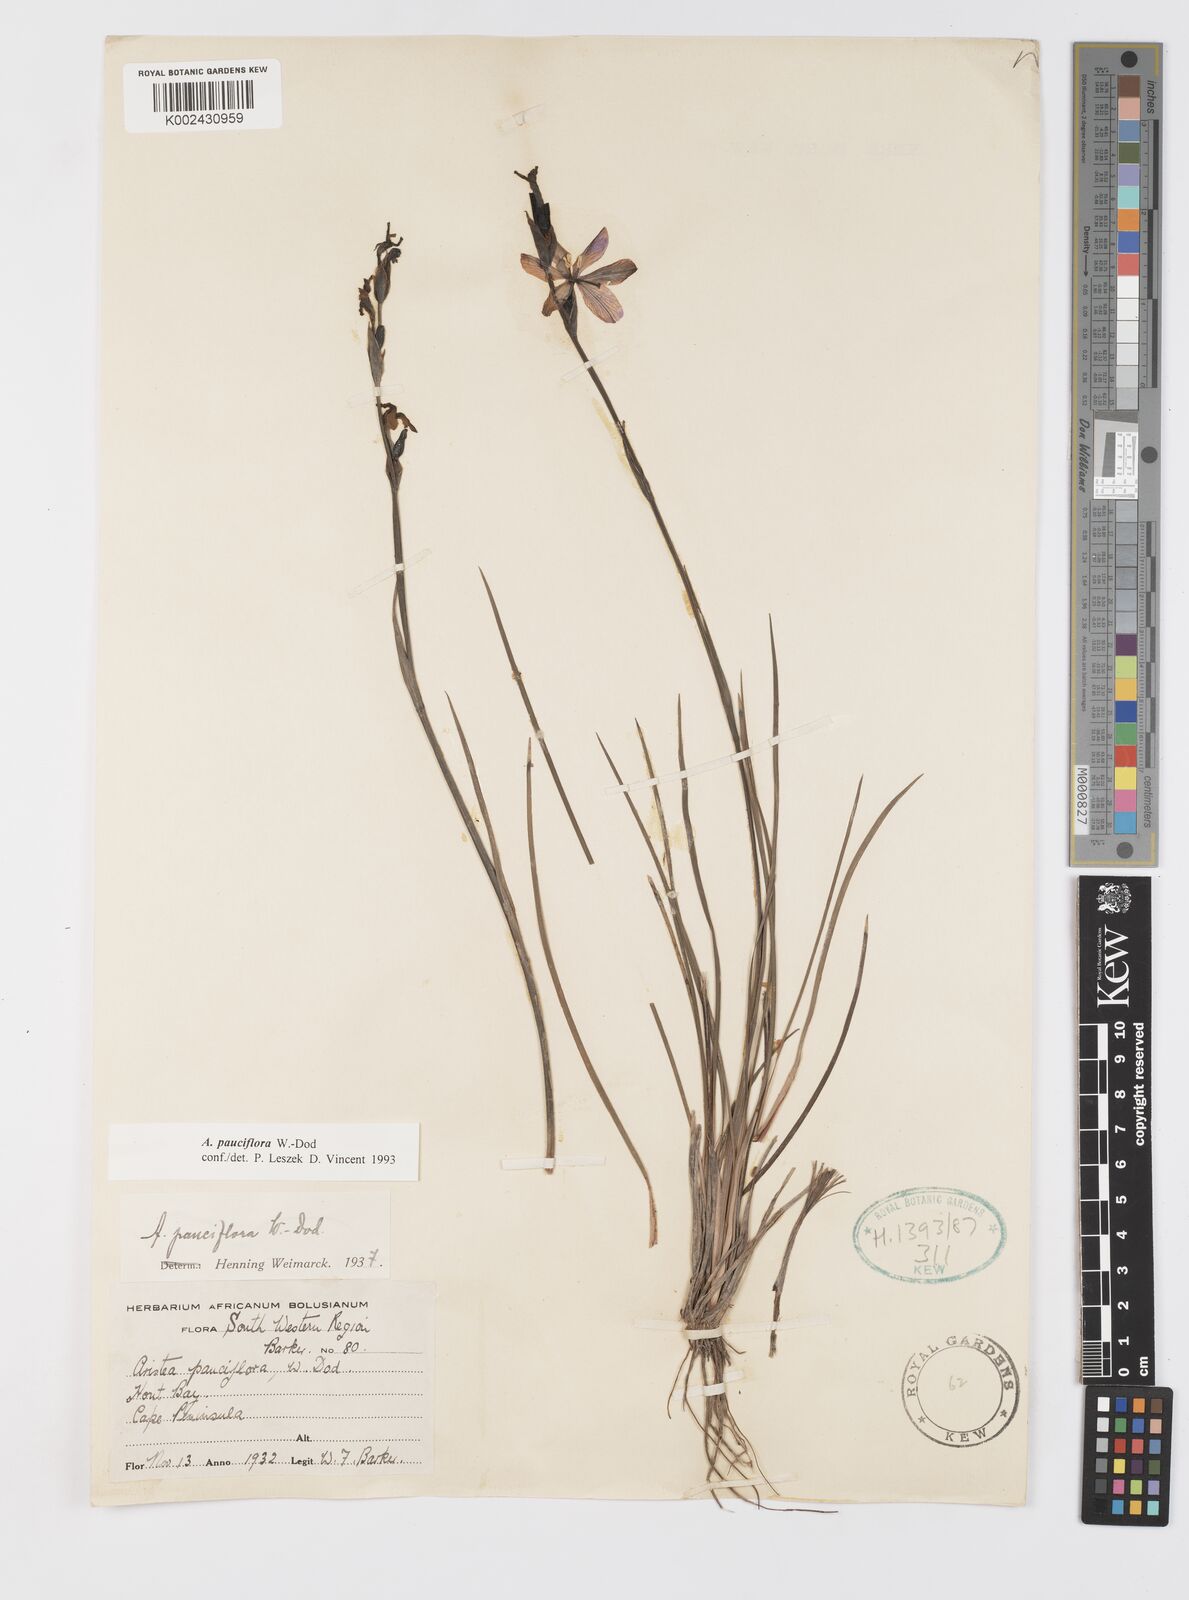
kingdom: Plantae
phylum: Tracheophyta
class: Liliopsida
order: Asparagales
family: Iridaceae
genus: Aristea
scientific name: Aristea pauciflora
